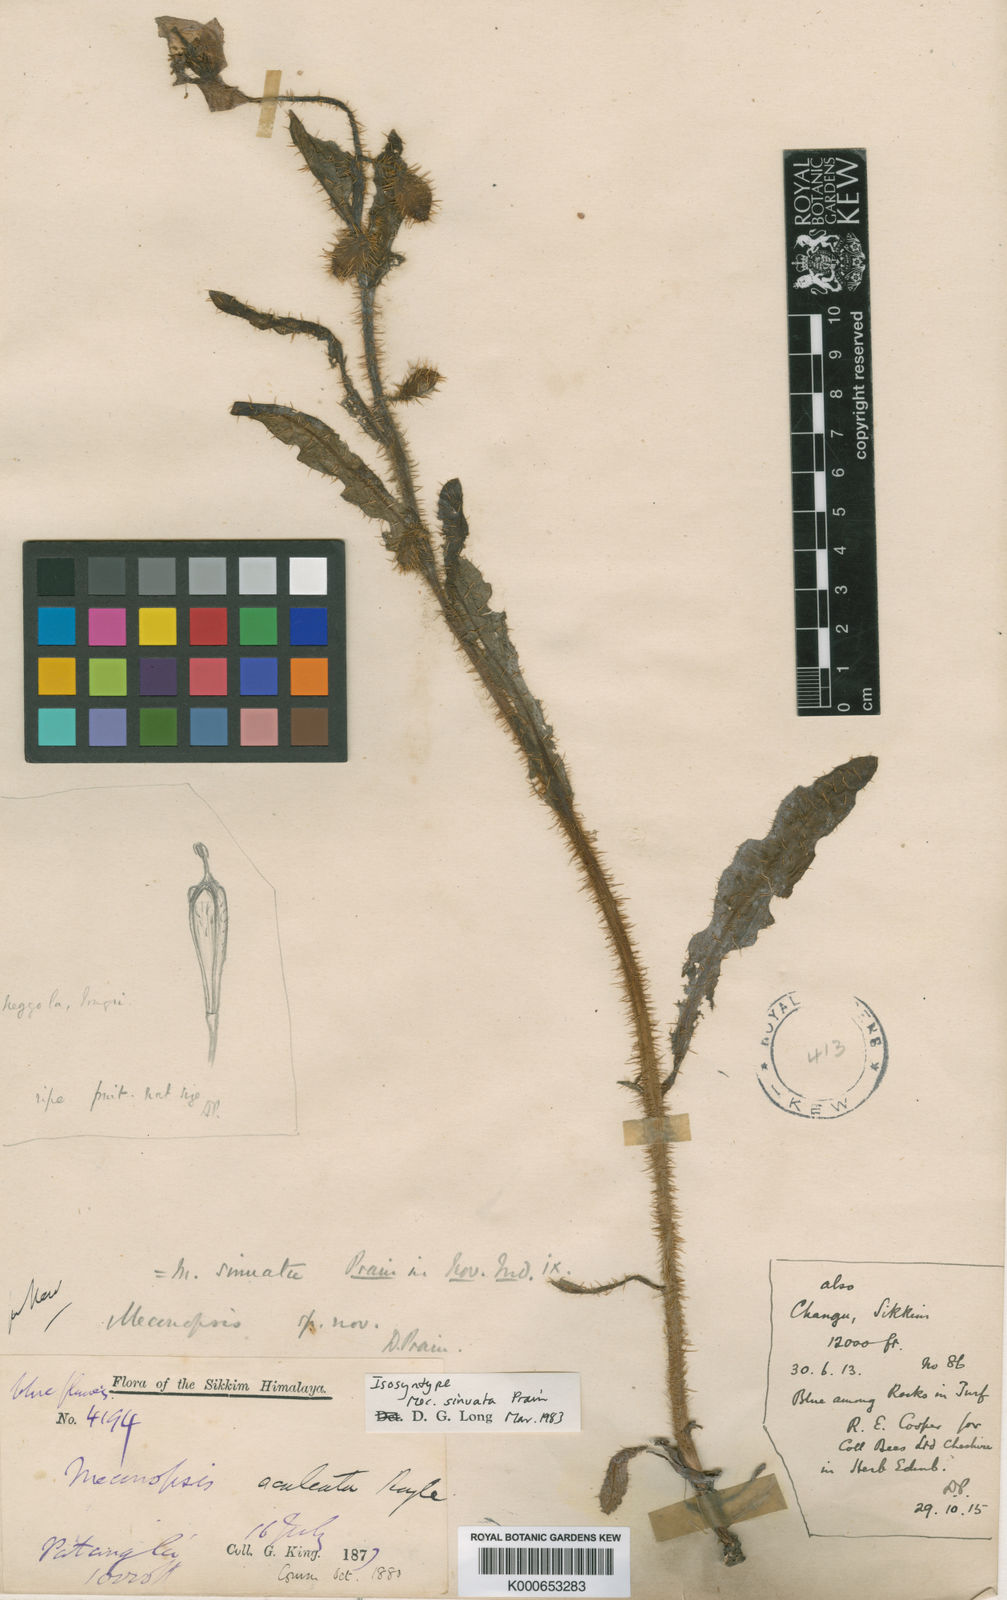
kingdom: Plantae
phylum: Tracheophyta
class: Magnoliopsida
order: Ranunculales
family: Papaveraceae
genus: Meconopsis
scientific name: Meconopsis sinuata
